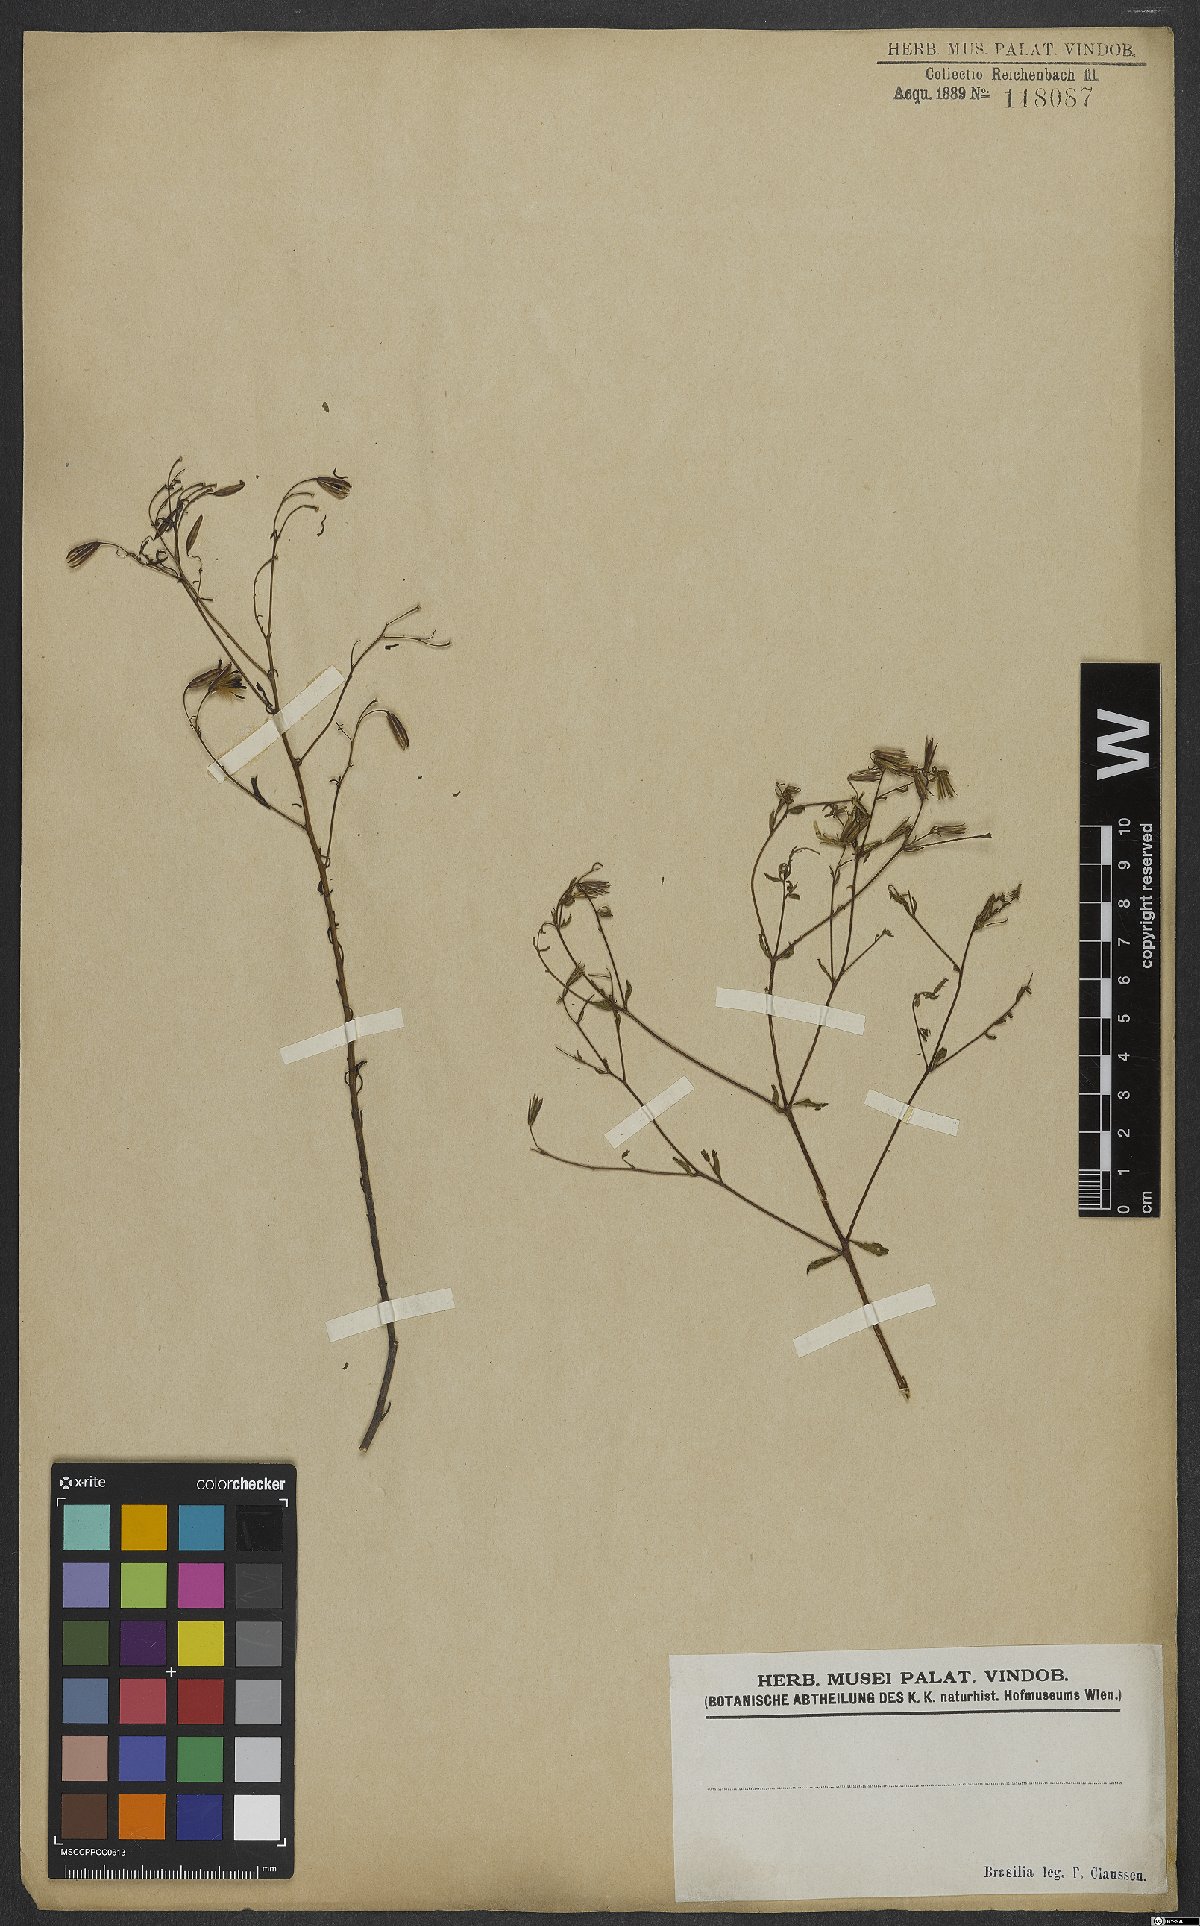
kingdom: Plantae
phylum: Tracheophyta
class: Magnoliopsida
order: Asterales
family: Asteraceae
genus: Porophyllum
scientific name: Porophyllum
